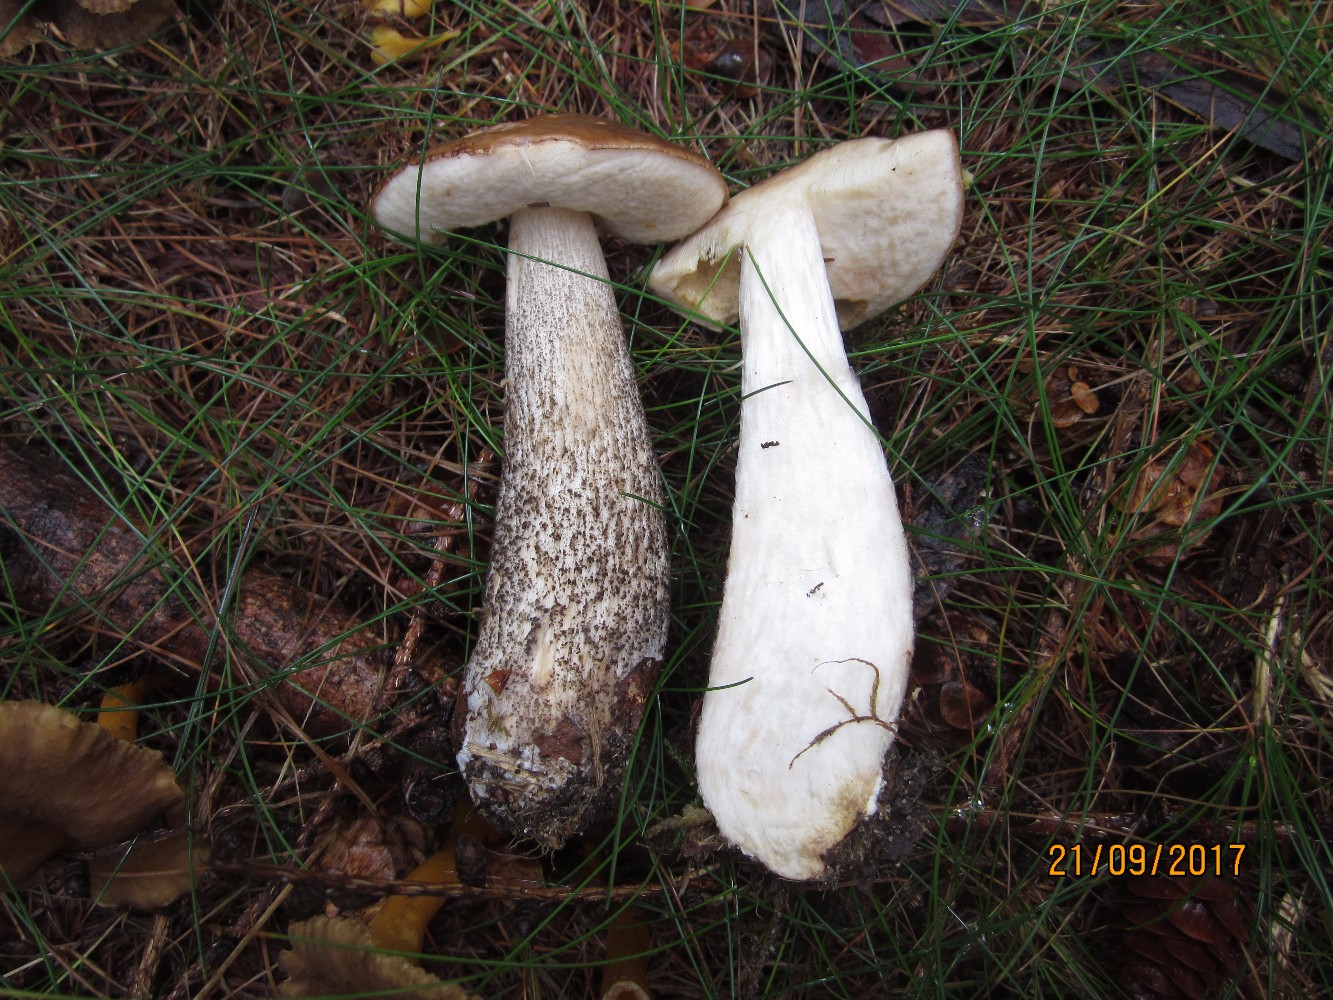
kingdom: Fungi
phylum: Basidiomycota
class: Agaricomycetes
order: Boletales
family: Boletaceae
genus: Leccinum
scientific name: Leccinum scabrum
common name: brun skælrørhat
